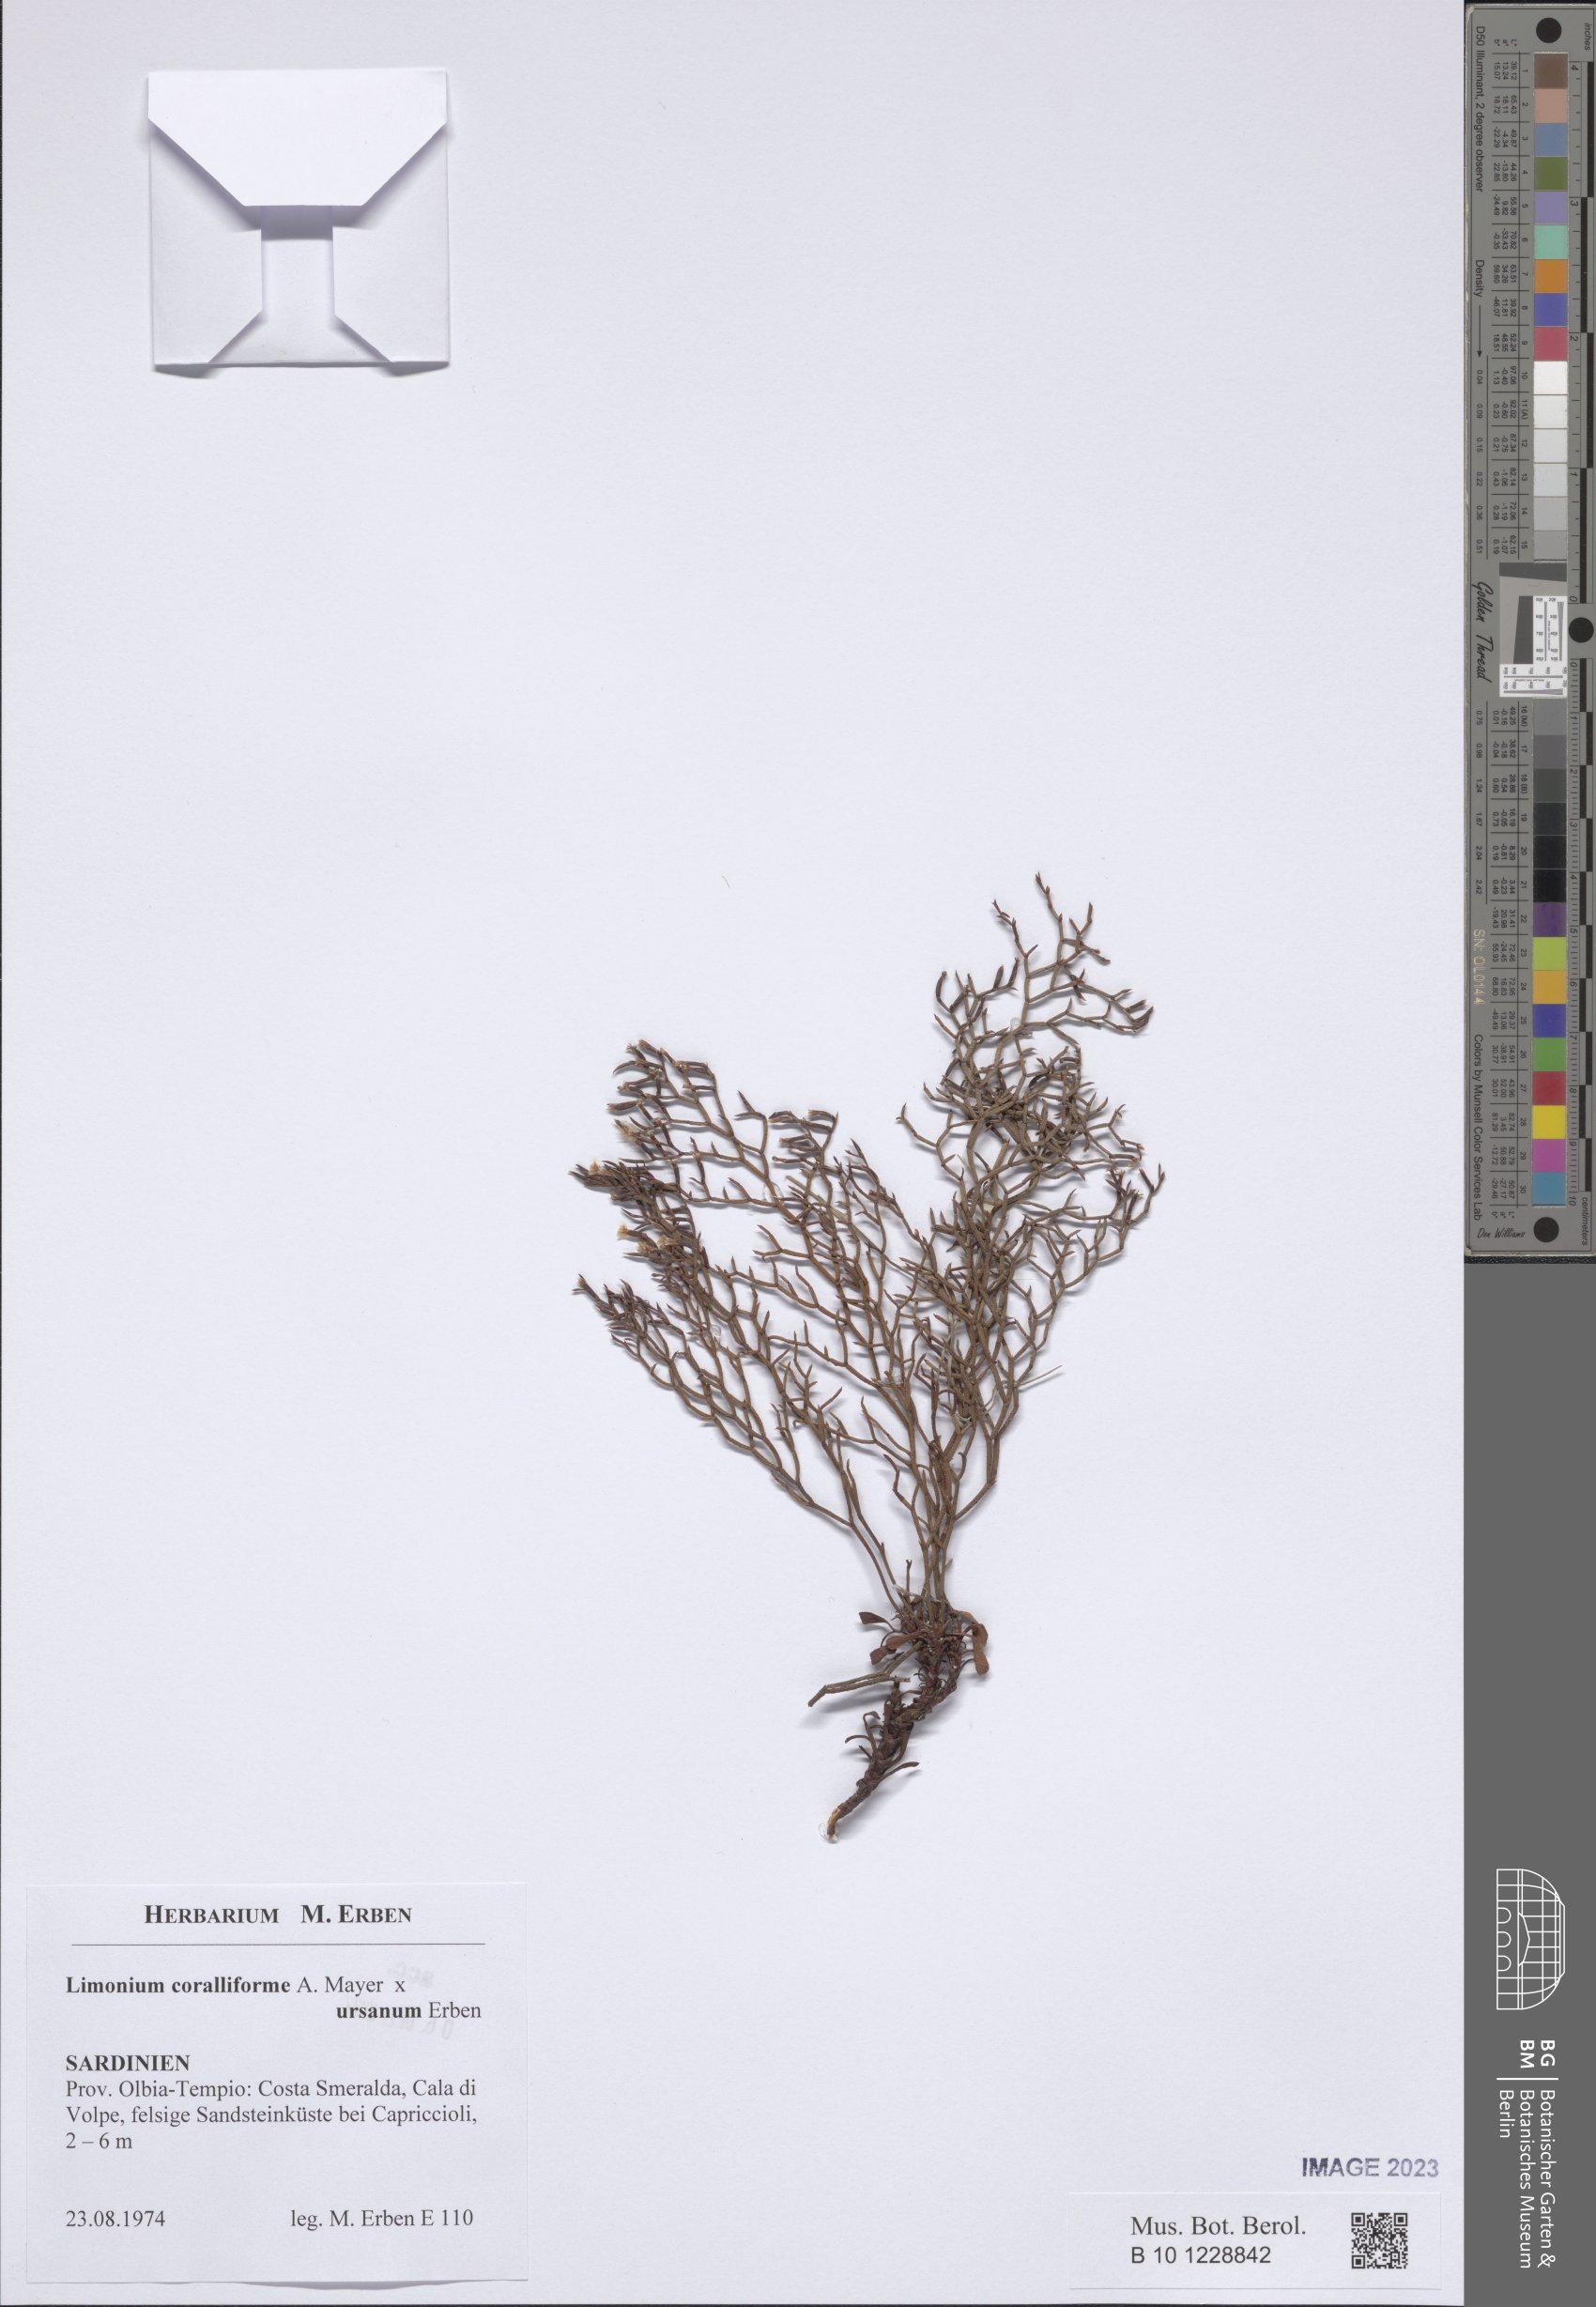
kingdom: Plantae
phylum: Tracheophyta
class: Magnoliopsida
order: Caryophyllales
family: Plumbaginaceae
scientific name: Plumbaginaceae
